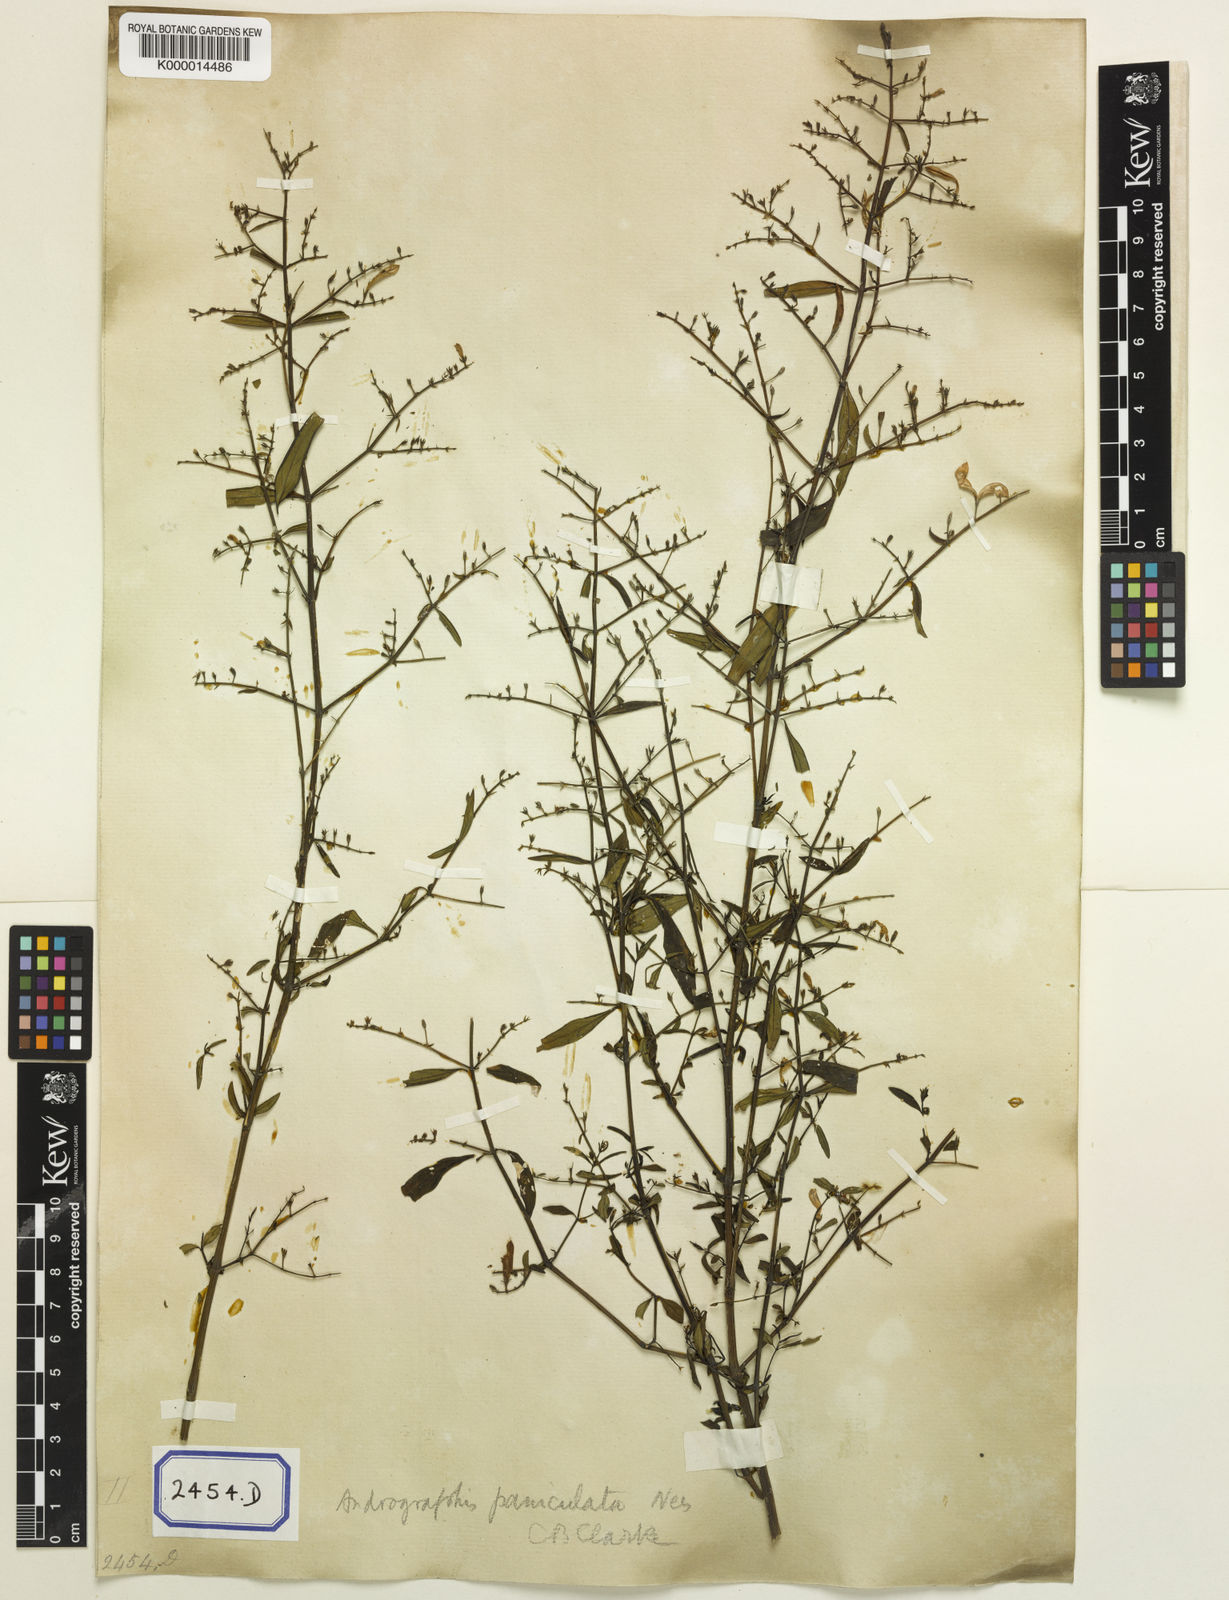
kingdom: Plantae
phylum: Tracheophyta
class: Magnoliopsida
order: Lamiales
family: Acanthaceae
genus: Justicia
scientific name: Justicia
